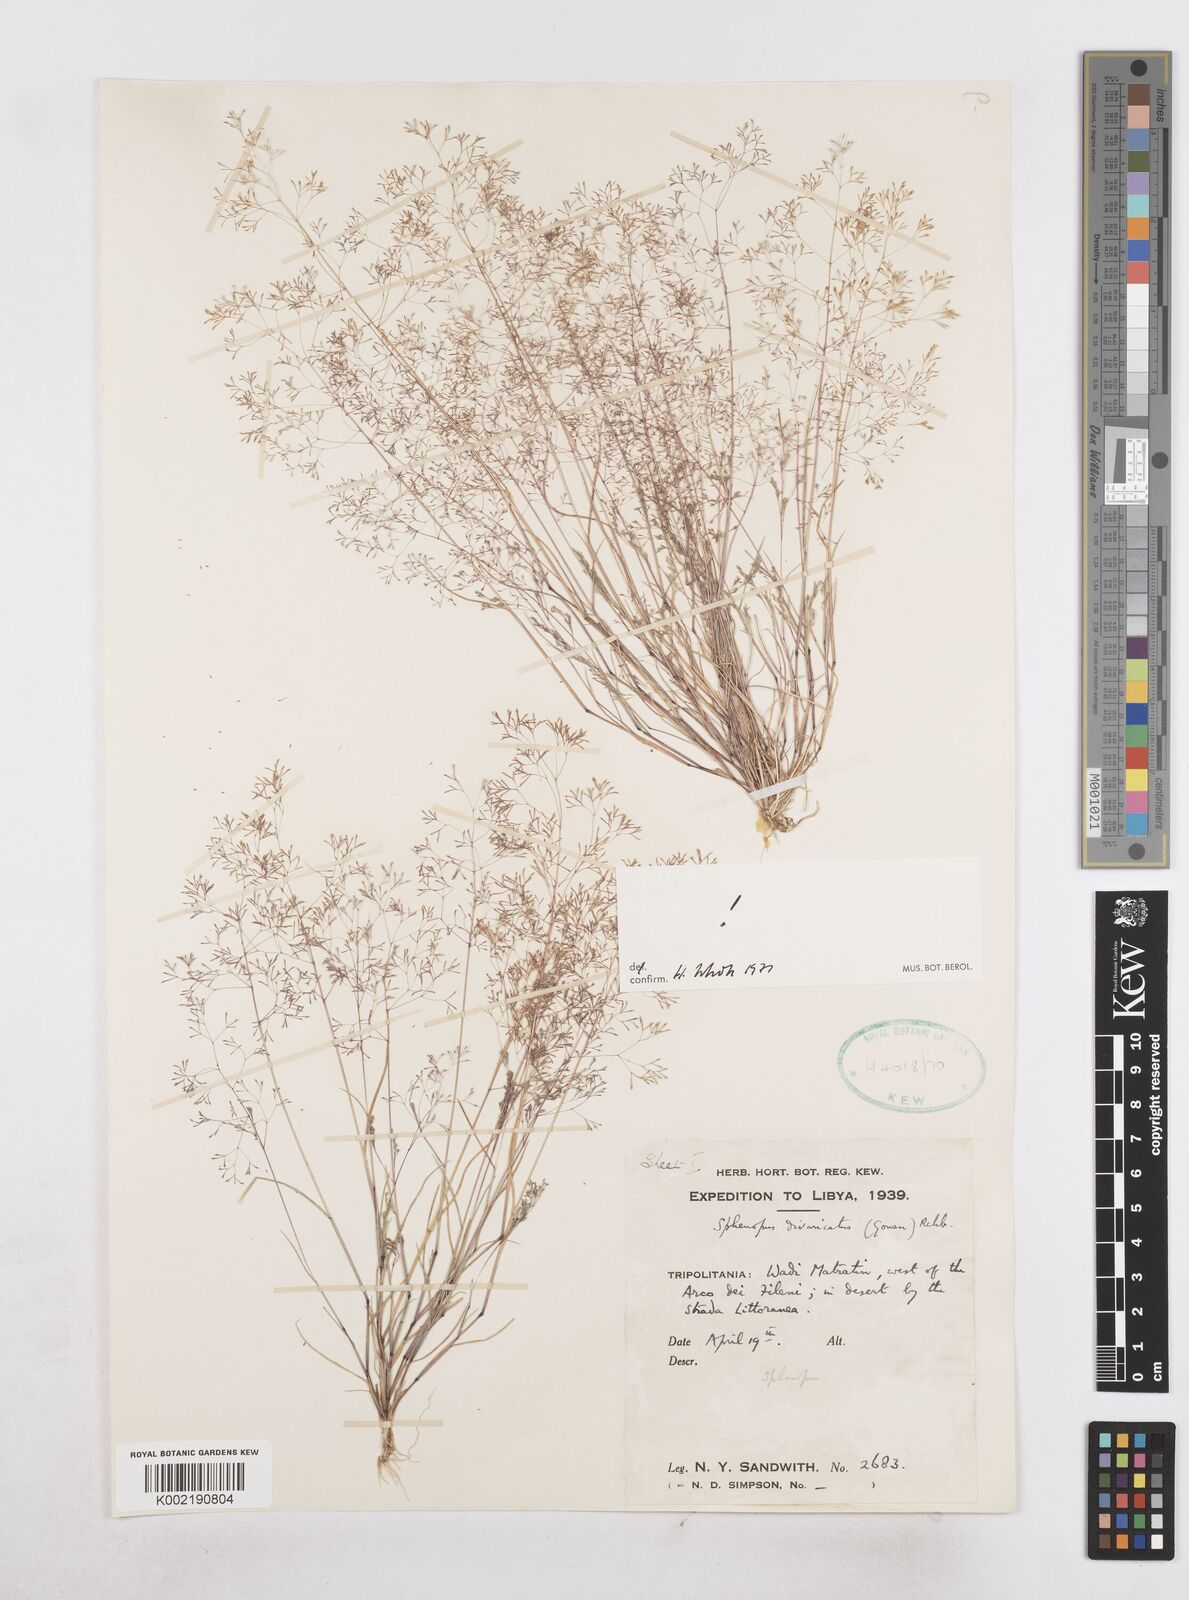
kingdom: Plantae
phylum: Tracheophyta
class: Liliopsida
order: Poales
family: Poaceae
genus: Sphenopus
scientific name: Sphenopus divaricatus
